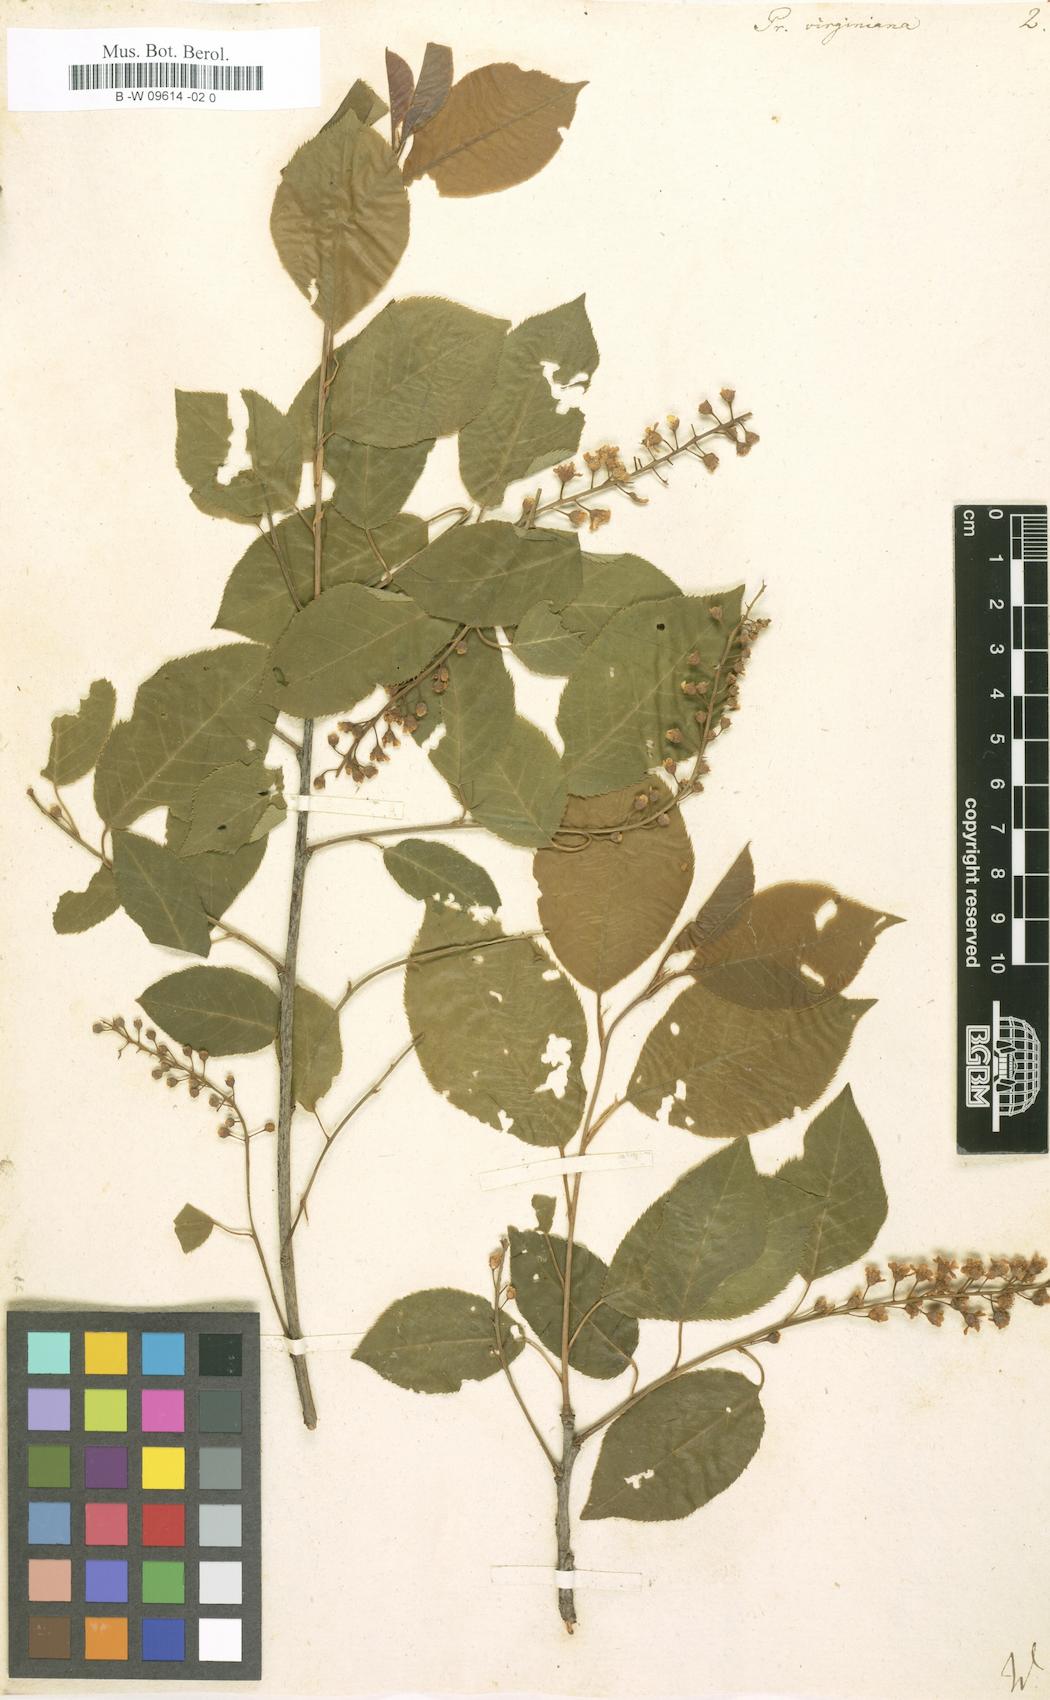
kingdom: Plantae
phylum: Tracheophyta
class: Magnoliopsida
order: Rosales
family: Rosaceae
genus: Prunus
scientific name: Prunus virginiana
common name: Chokecherry
